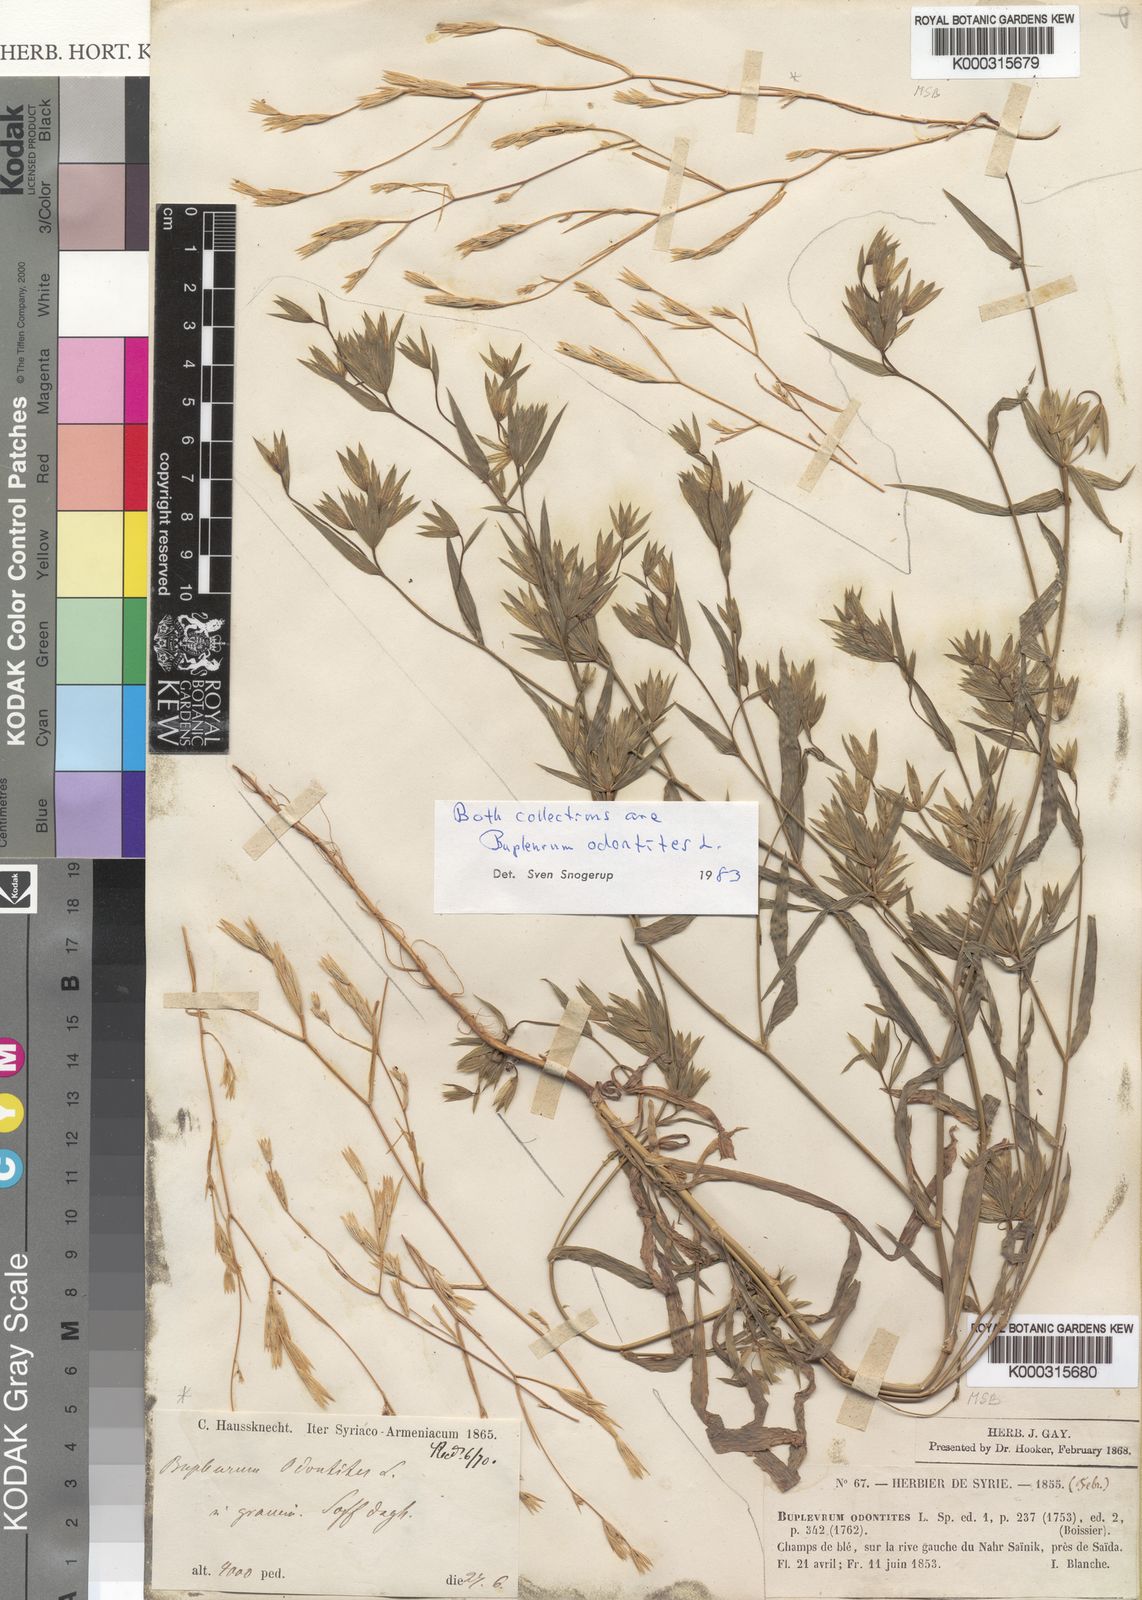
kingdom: Plantae
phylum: Tracheophyta
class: Magnoliopsida
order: Apiales
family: Apiaceae
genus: Bupleurum
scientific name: Bupleurum odontites
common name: Narrowleaf thorow wax
